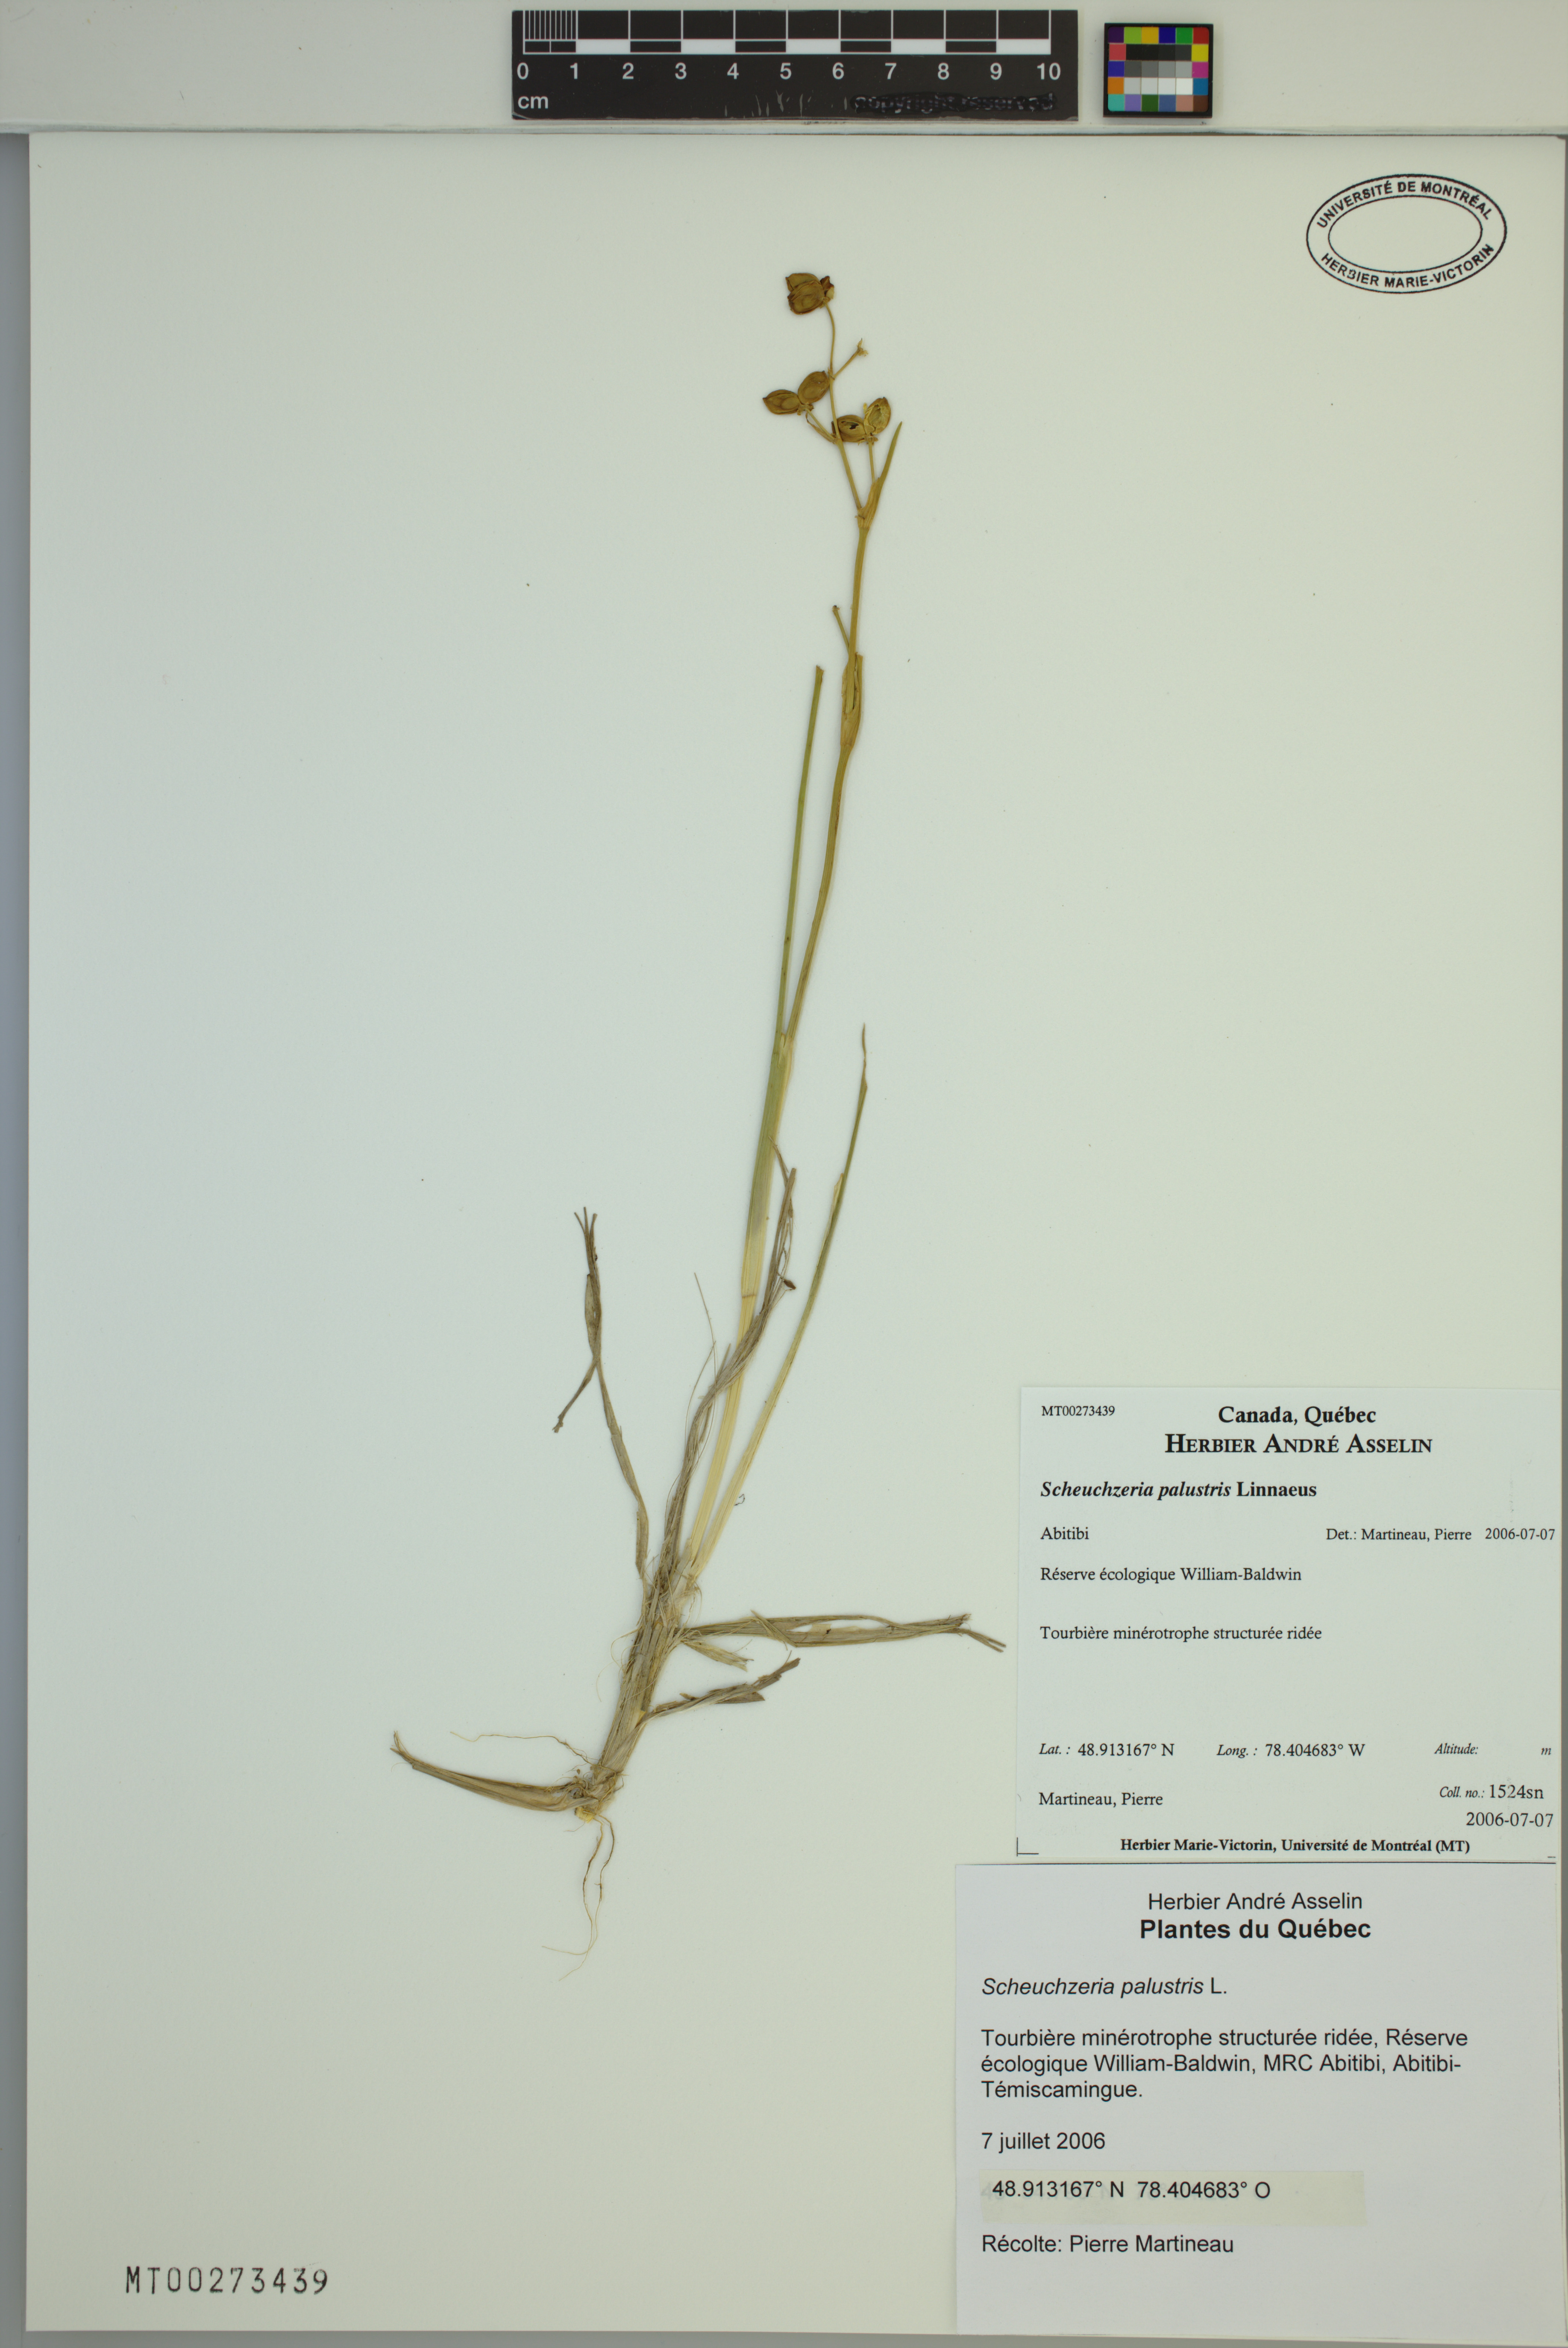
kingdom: Plantae
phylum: Tracheophyta
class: Liliopsida
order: Alismatales
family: Scheuchzeriaceae
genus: Scheuchzeria
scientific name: Scheuchzeria palustris
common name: Rannoch-rush
